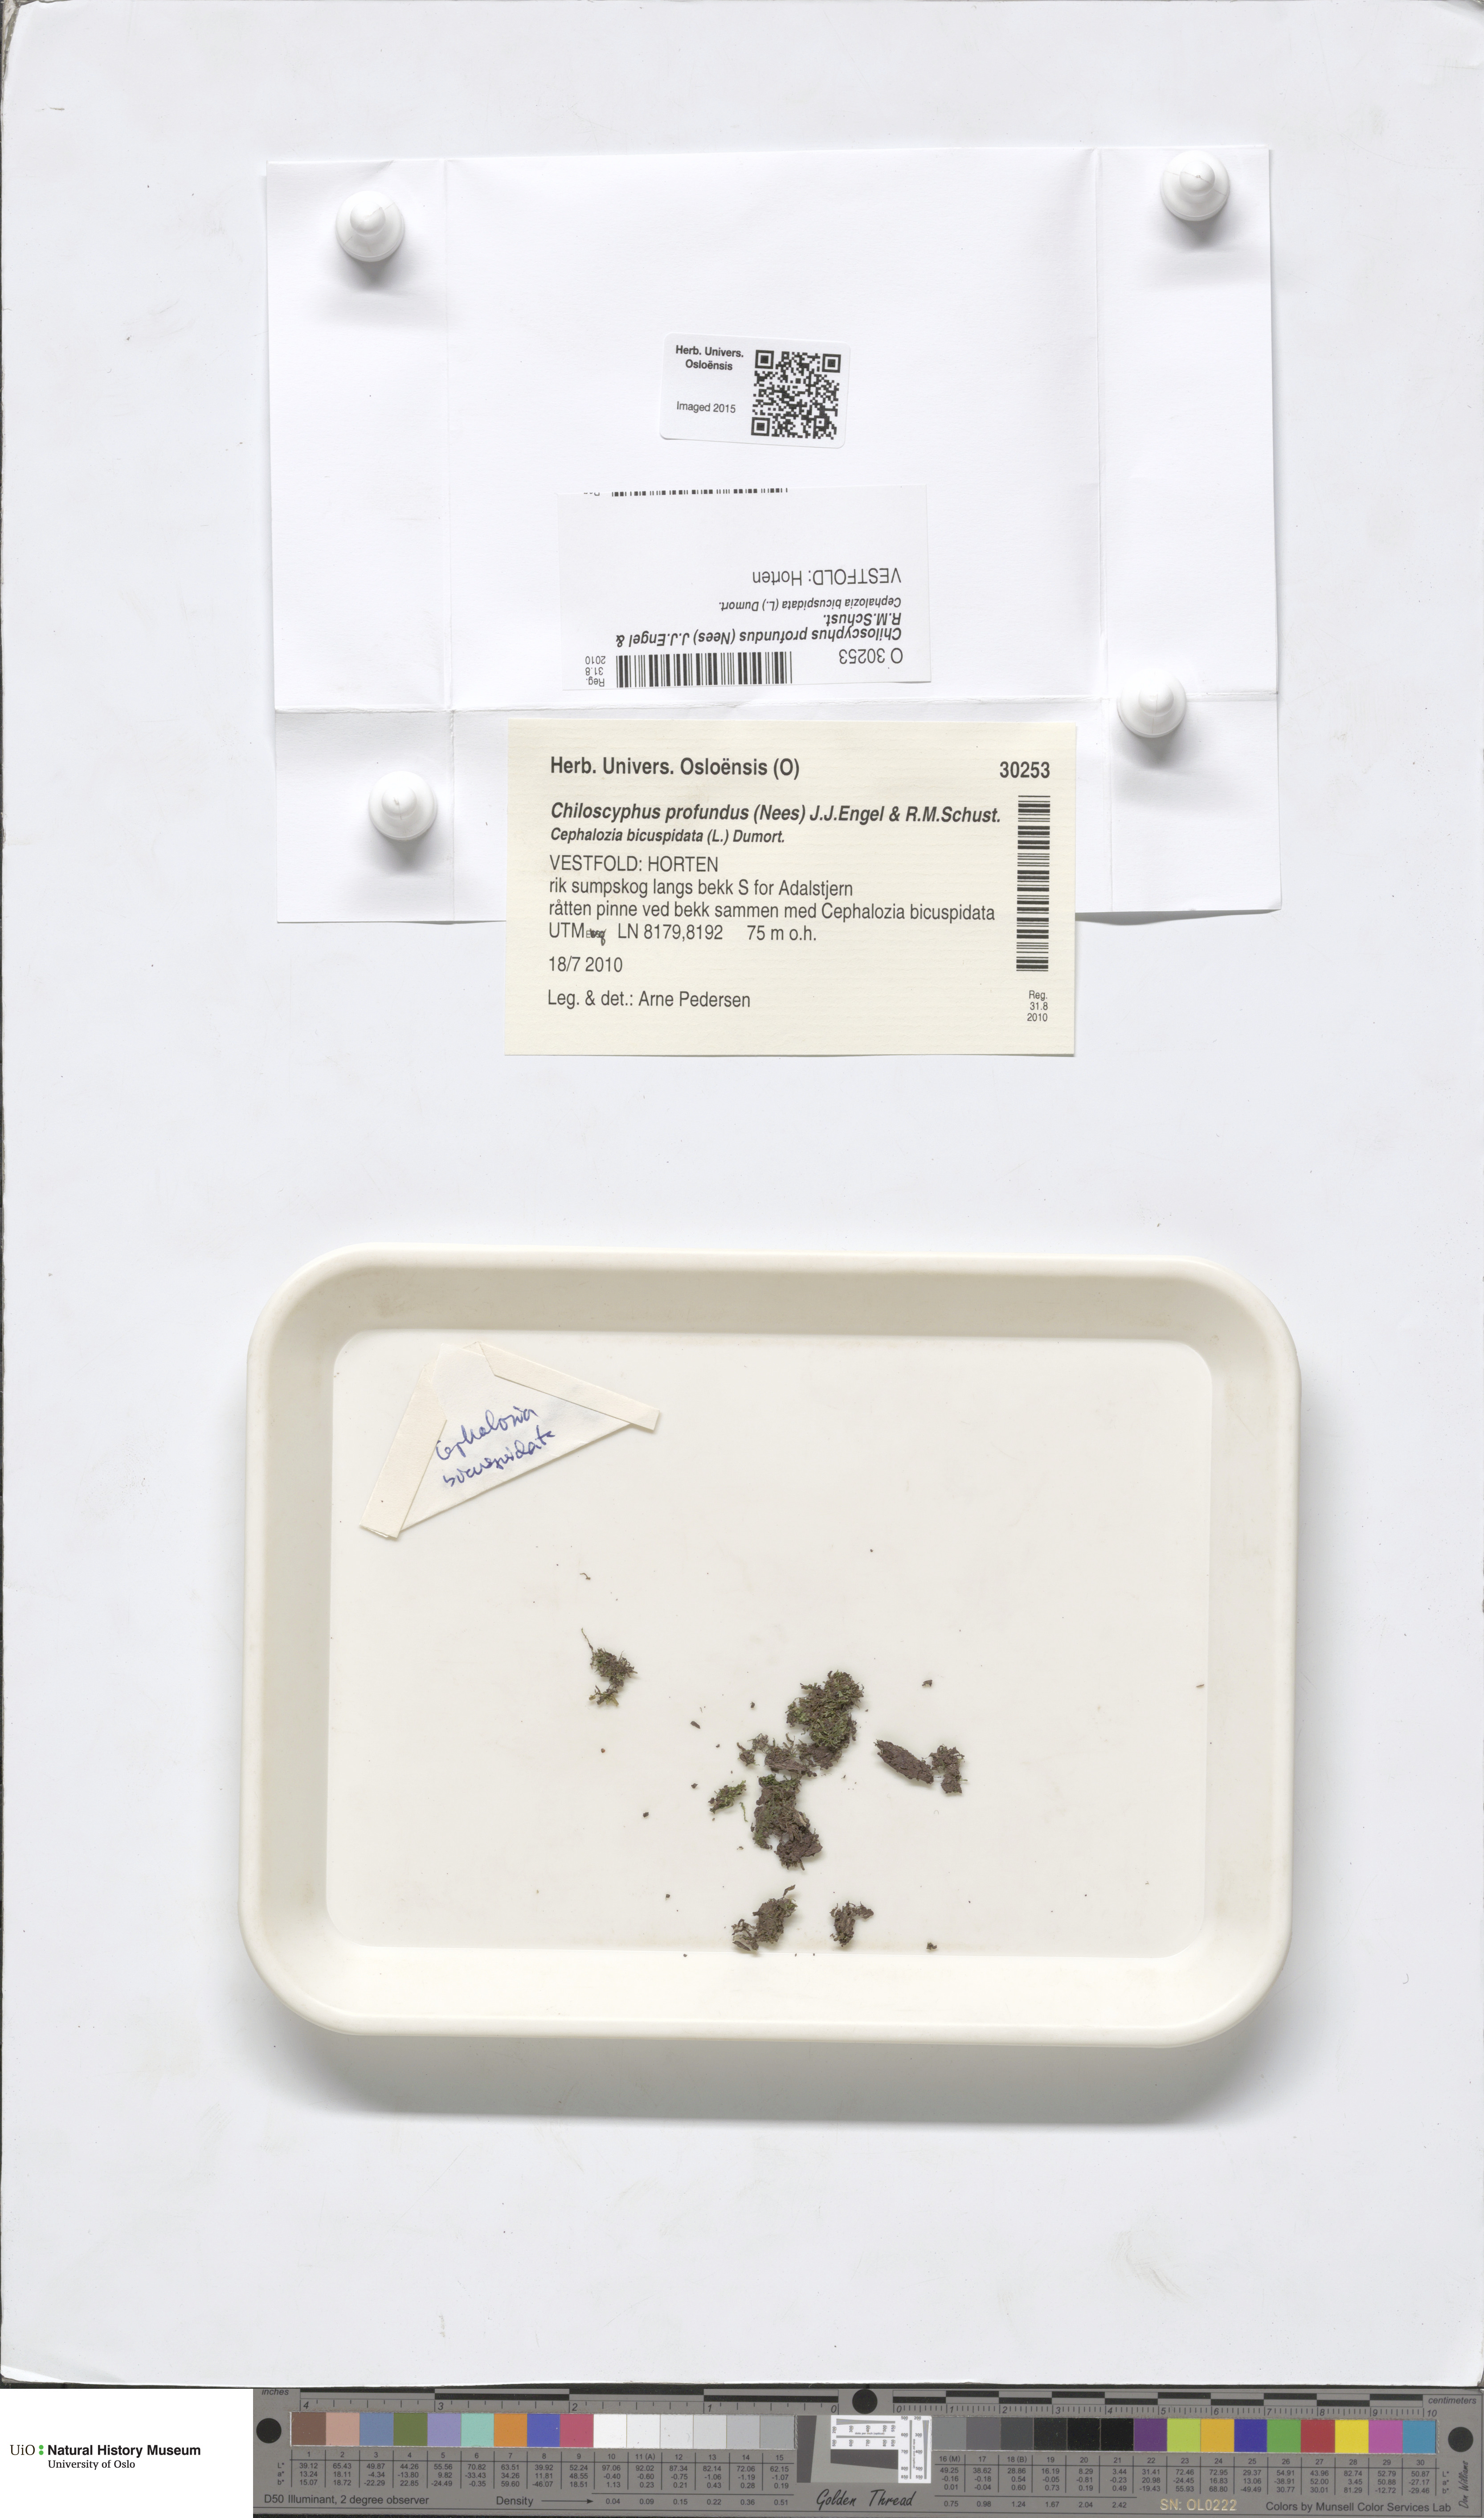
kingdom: Plantae
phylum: Marchantiophyta
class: Jungermanniopsida
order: Jungermanniales
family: Lophocoleaceae
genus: Lophocolea
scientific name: Lophocolea heterophylla
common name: Variable-leaved crestwort
